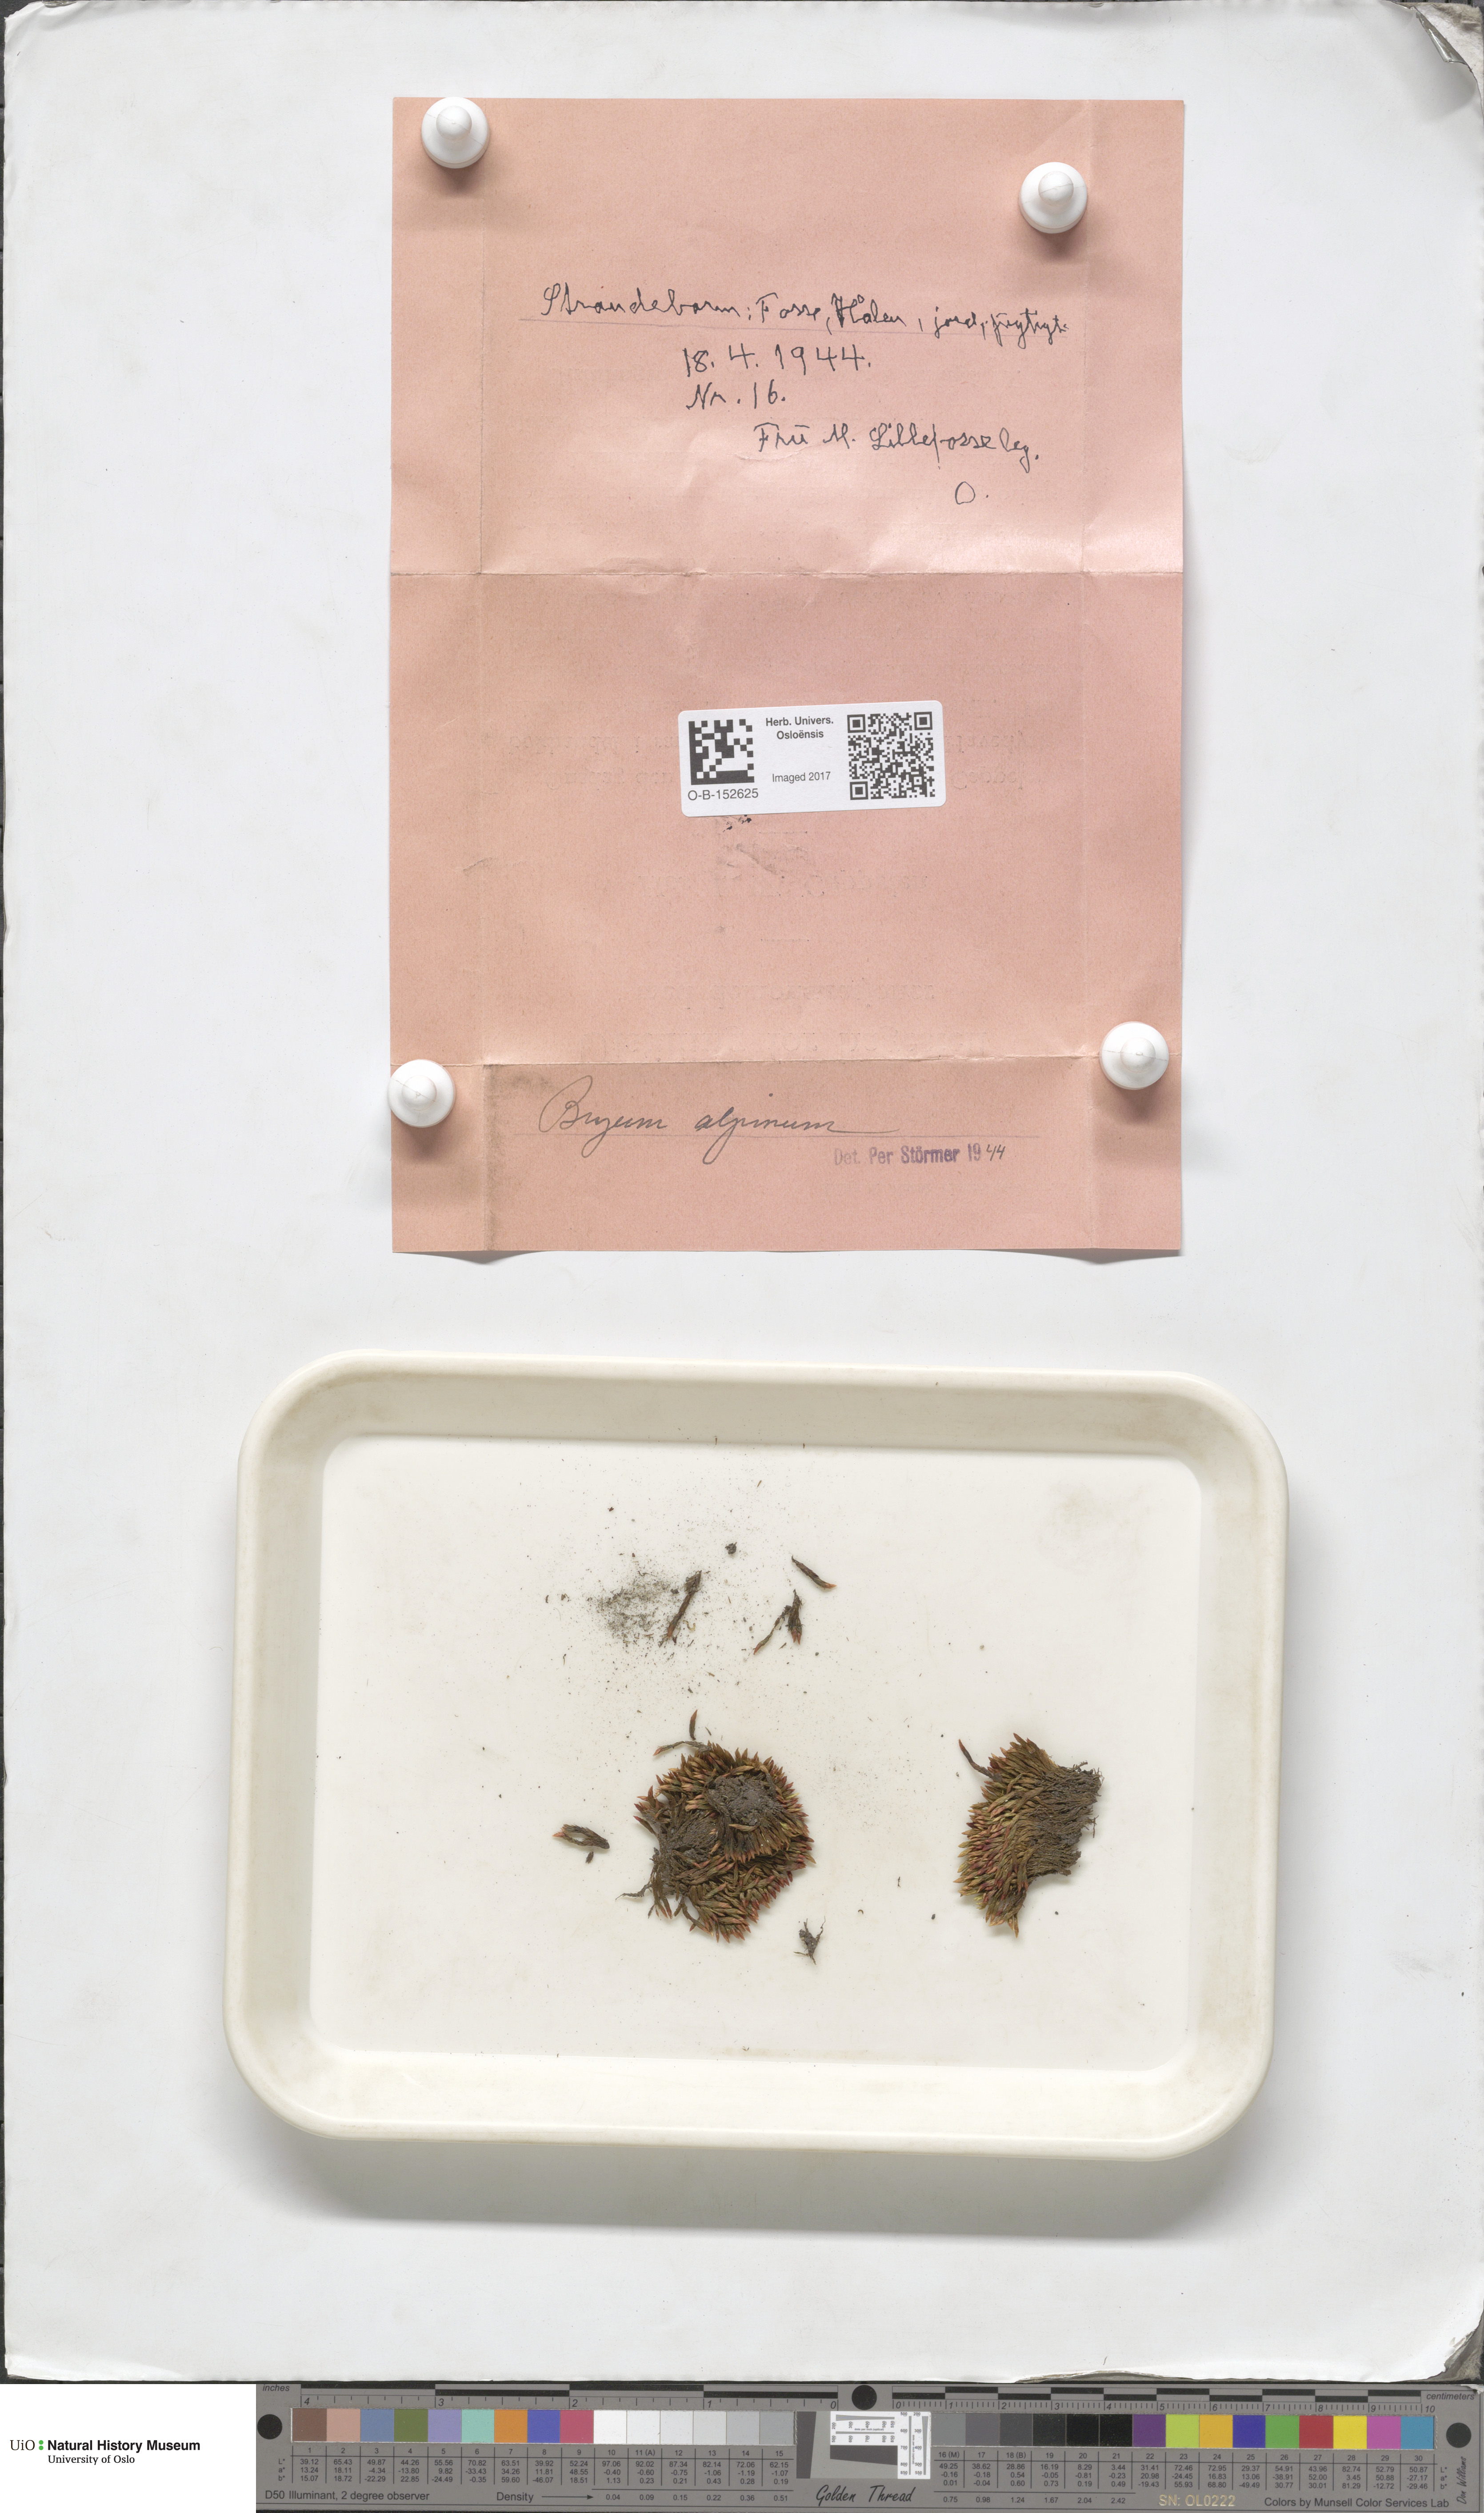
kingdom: Plantae
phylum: Bryophyta
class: Bryopsida
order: Bryales
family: Bryaceae
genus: Imbribryum
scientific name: Imbribryum alpinum
